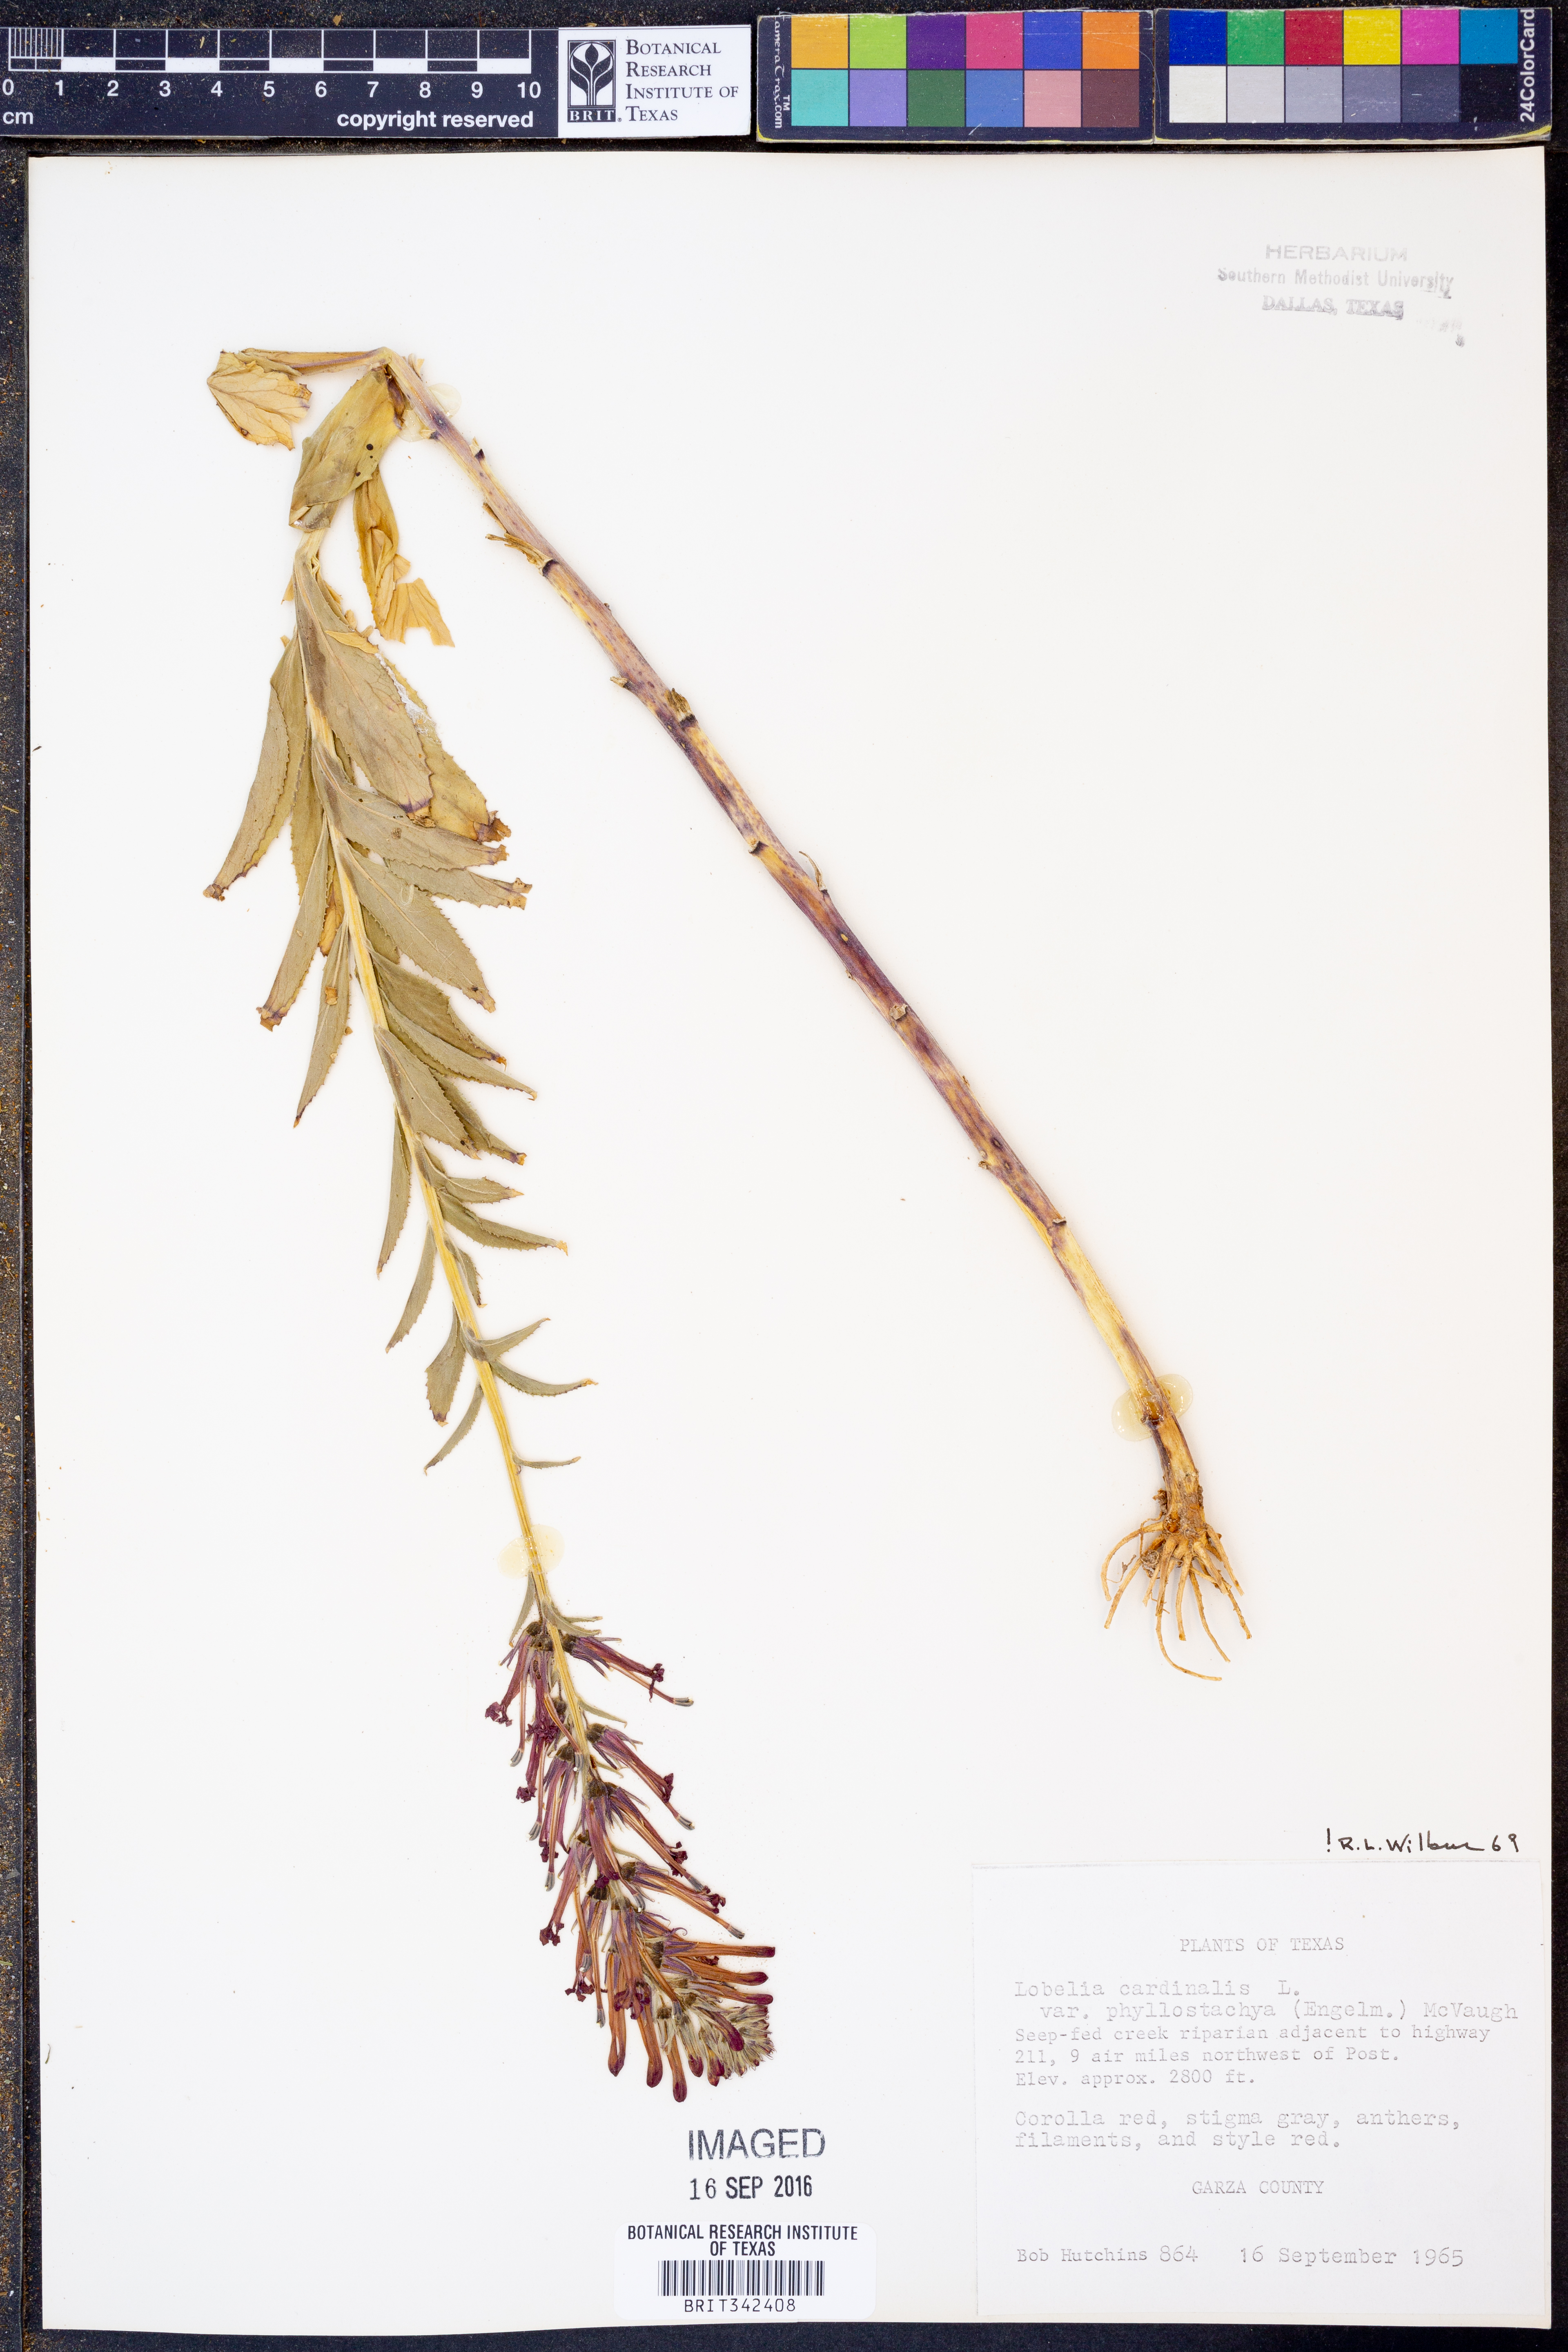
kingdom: Plantae
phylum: Tracheophyta
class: Magnoliopsida
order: Asterales
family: Campanulaceae
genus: Lobelia
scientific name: Lobelia cardinalis
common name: Cardinal flower
